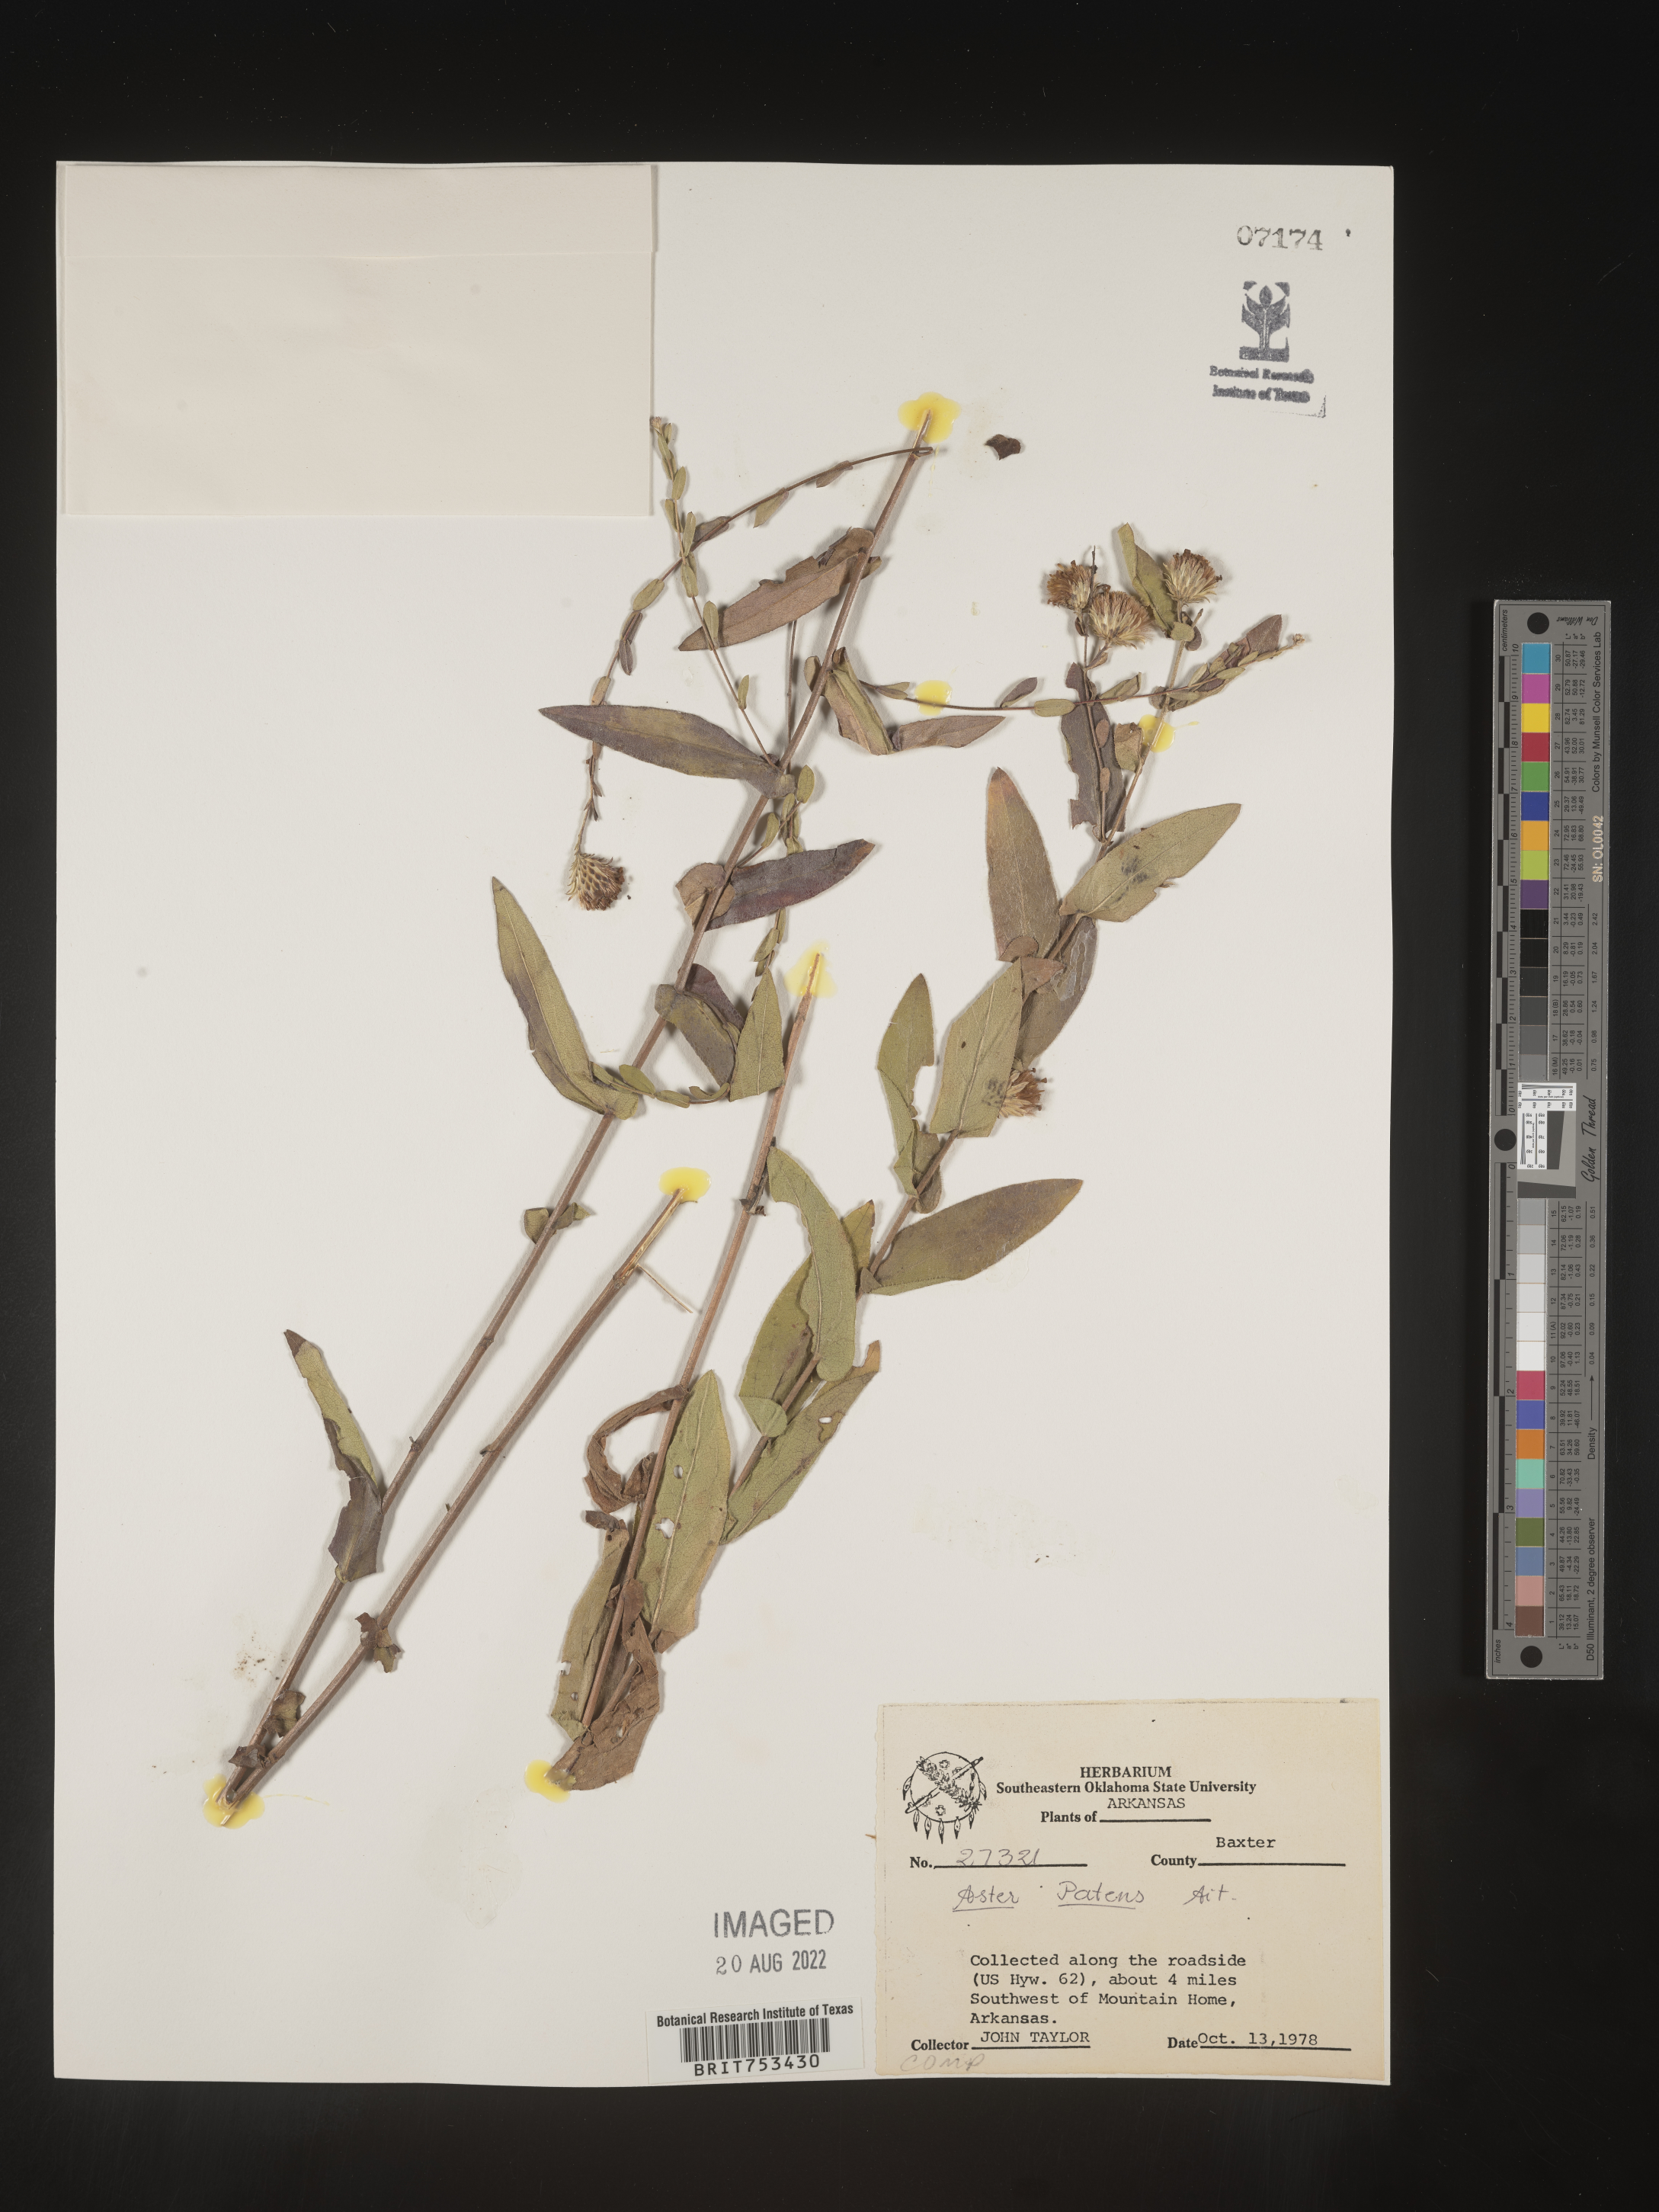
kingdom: Plantae
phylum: Tracheophyta
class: Magnoliopsida
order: Asterales
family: Asteraceae
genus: Symphyotrichum
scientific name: Symphyotrichum patens
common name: Late purple aster
